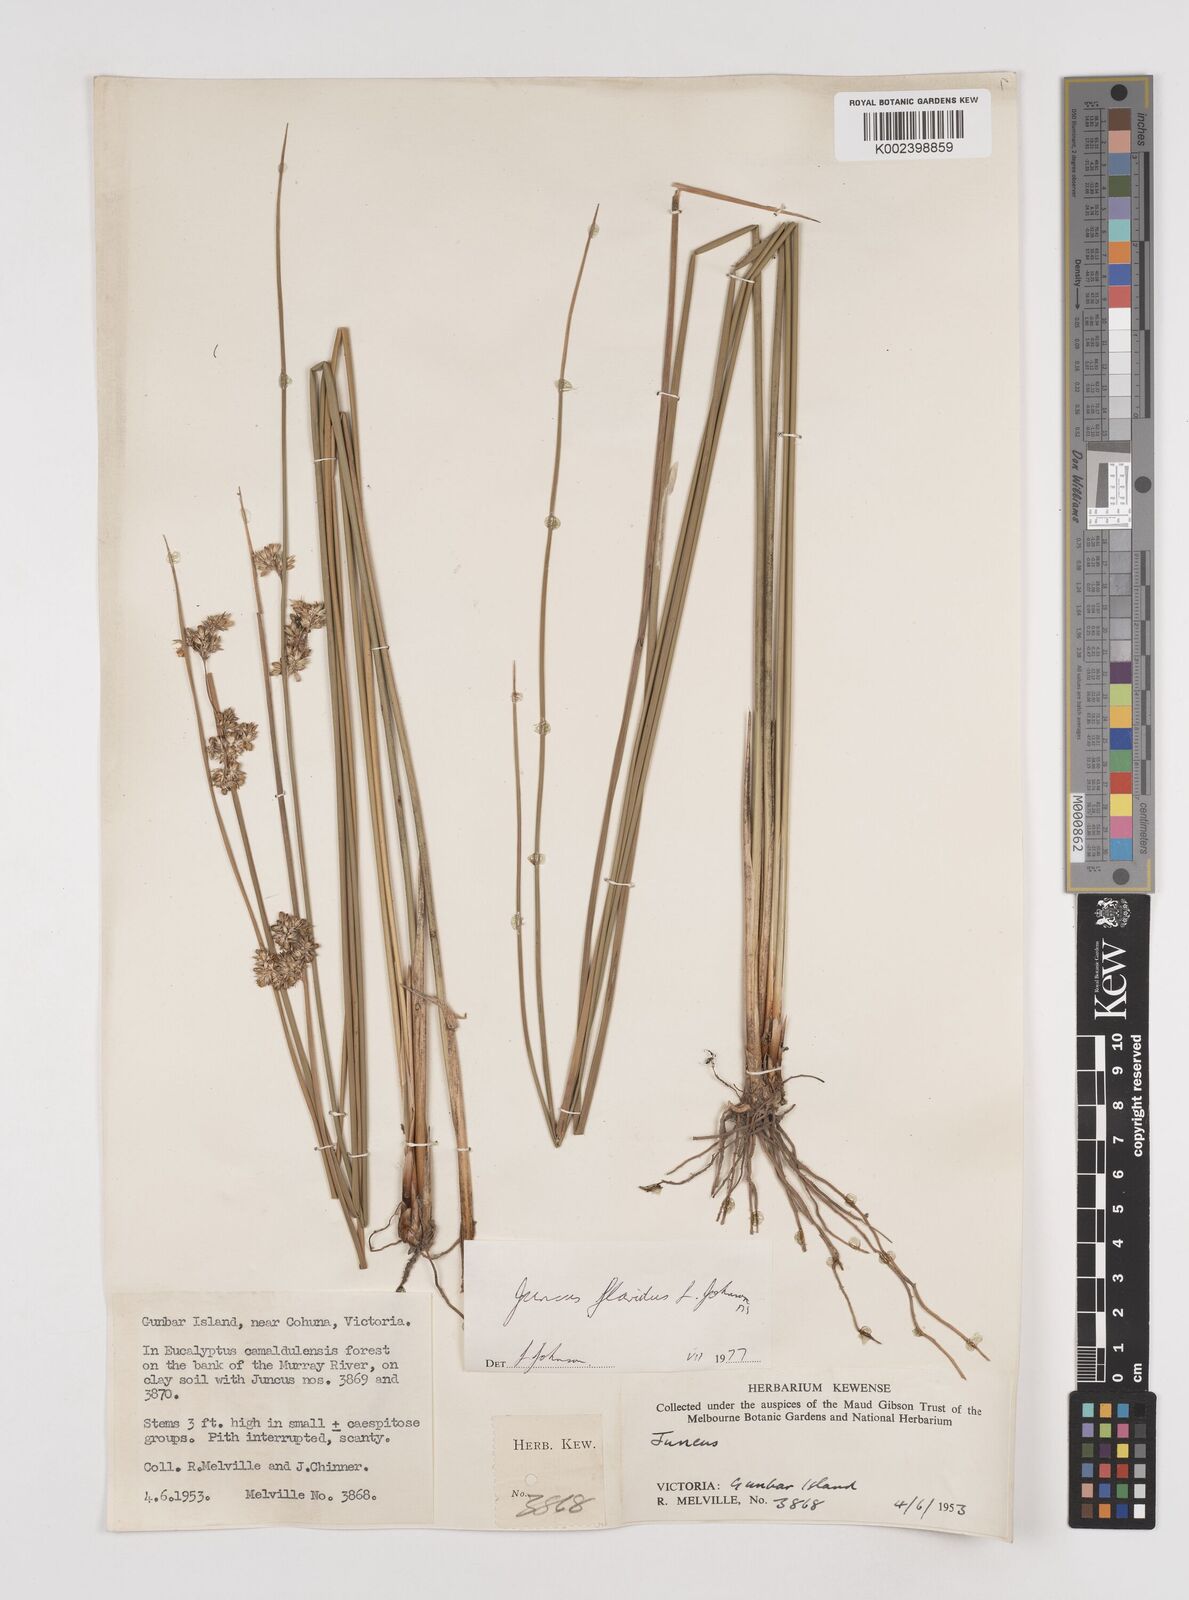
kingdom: Plantae
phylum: Tracheophyta
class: Liliopsida
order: Poales
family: Juncaceae
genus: Juncus
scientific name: Juncus flavidus
